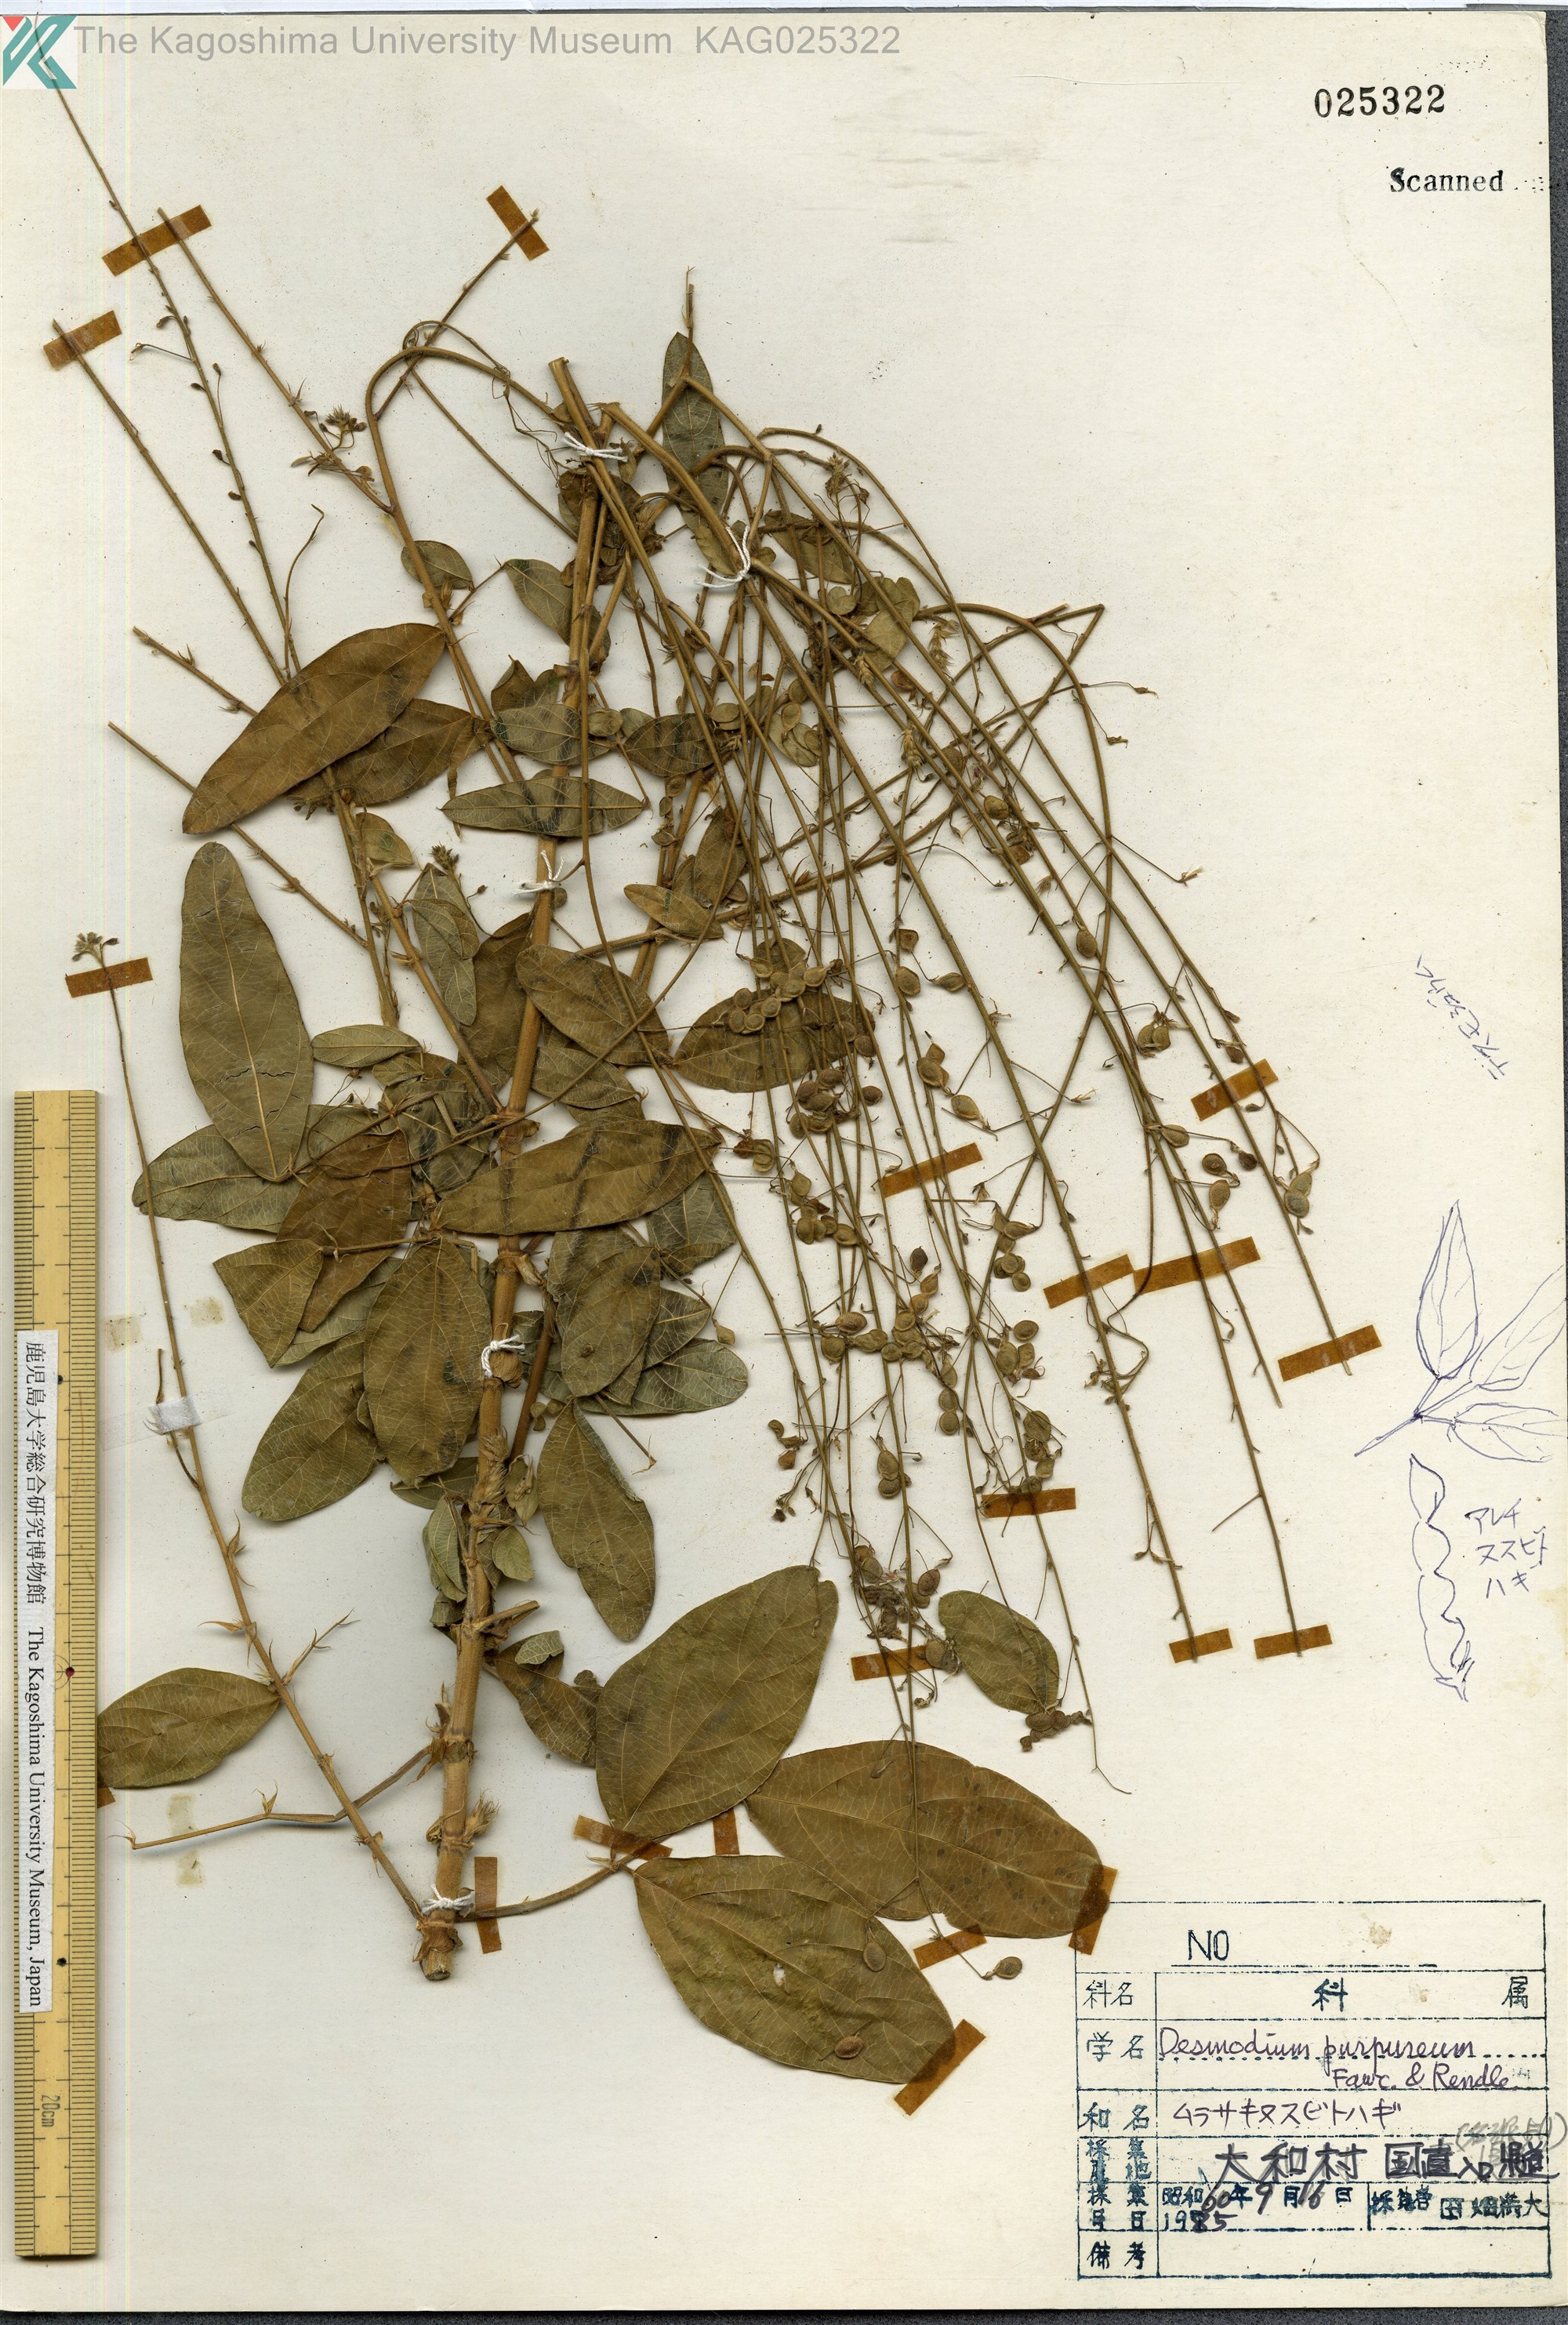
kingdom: Plantae
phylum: Tracheophyta
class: Magnoliopsida
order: Fabales
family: Fabaceae
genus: Desmodium
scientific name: Desmodium tortuosum
